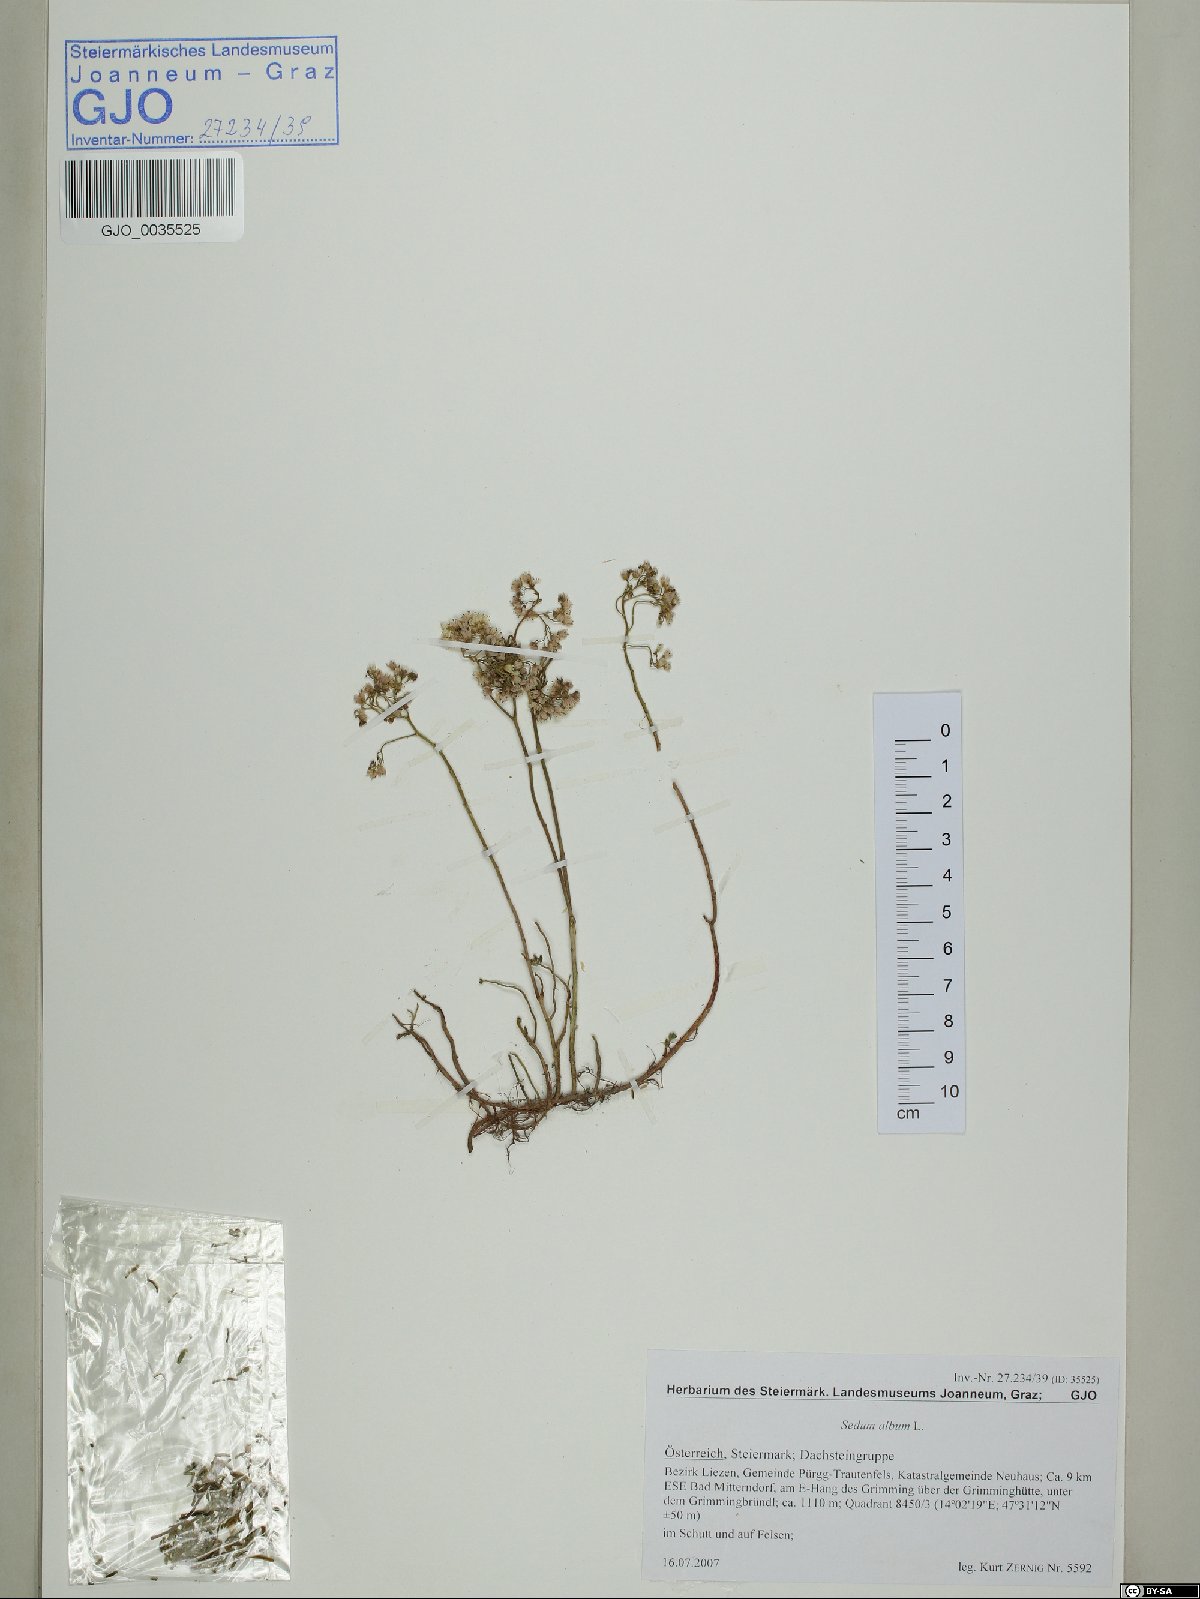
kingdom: Plantae
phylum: Tracheophyta
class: Magnoliopsida
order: Saxifragales
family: Crassulaceae
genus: Sedum
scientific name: Sedum album
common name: White stonecrop
